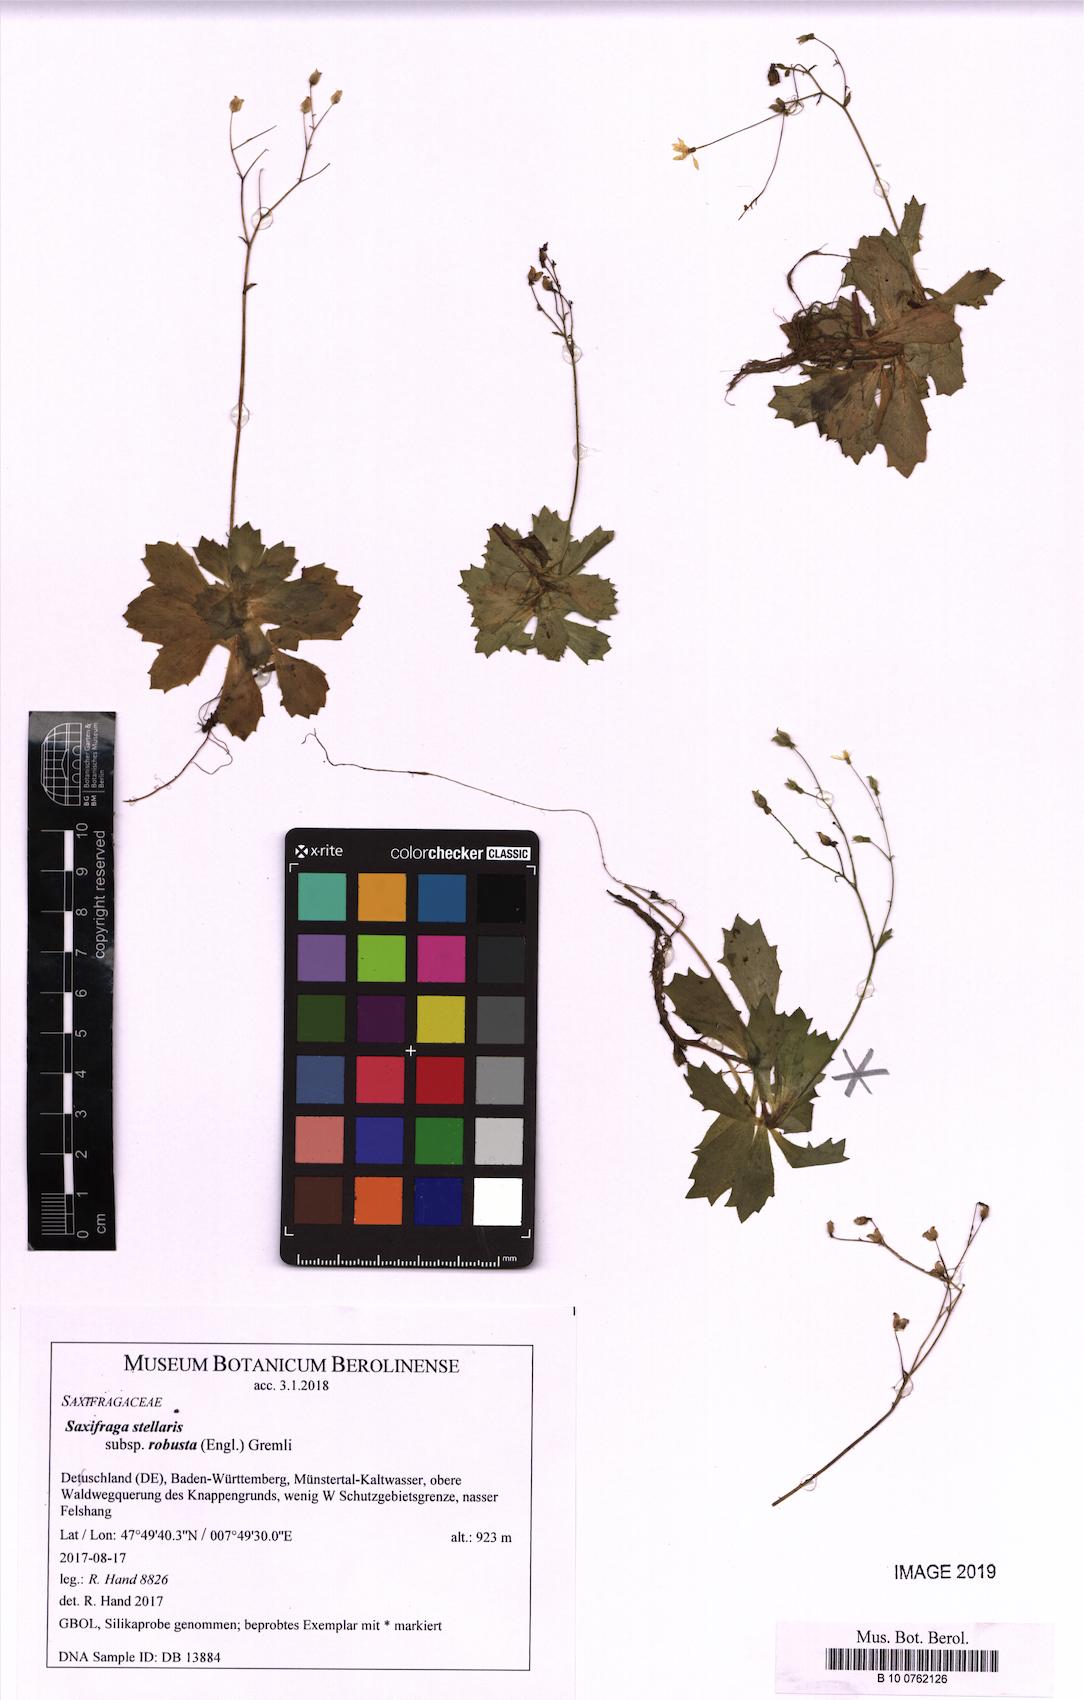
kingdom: Plantae
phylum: Tracheophyta
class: Magnoliopsida
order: Saxifragales
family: Saxifragaceae
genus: Micranthes
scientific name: Micranthes stellaris
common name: Starry saxifrage
